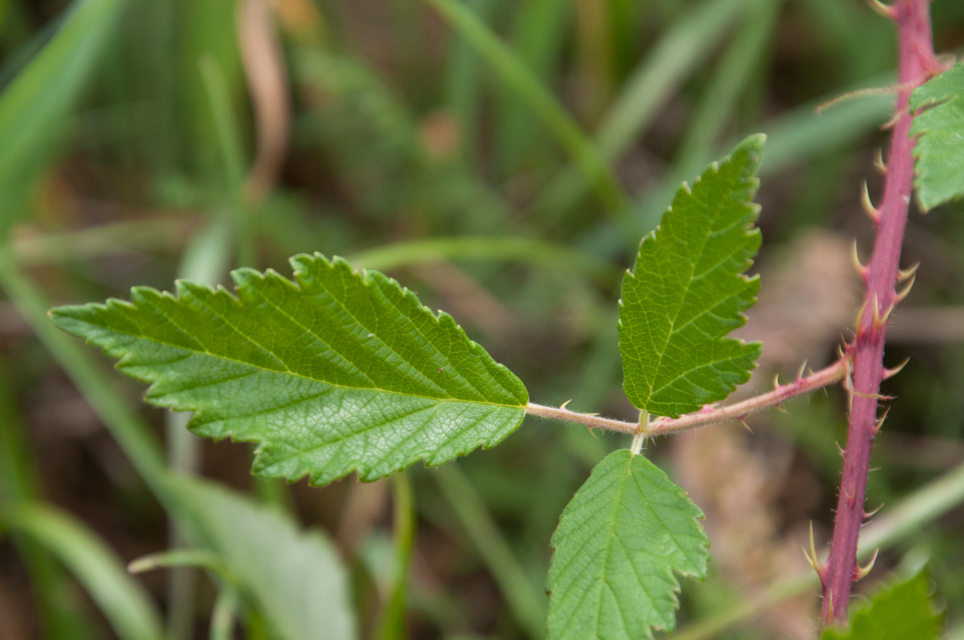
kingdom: Plantae
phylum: Tracheophyta
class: Magnoliopsida
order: Rosales
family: Rosaceae
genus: Rubus
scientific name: Rubus schleicheri
